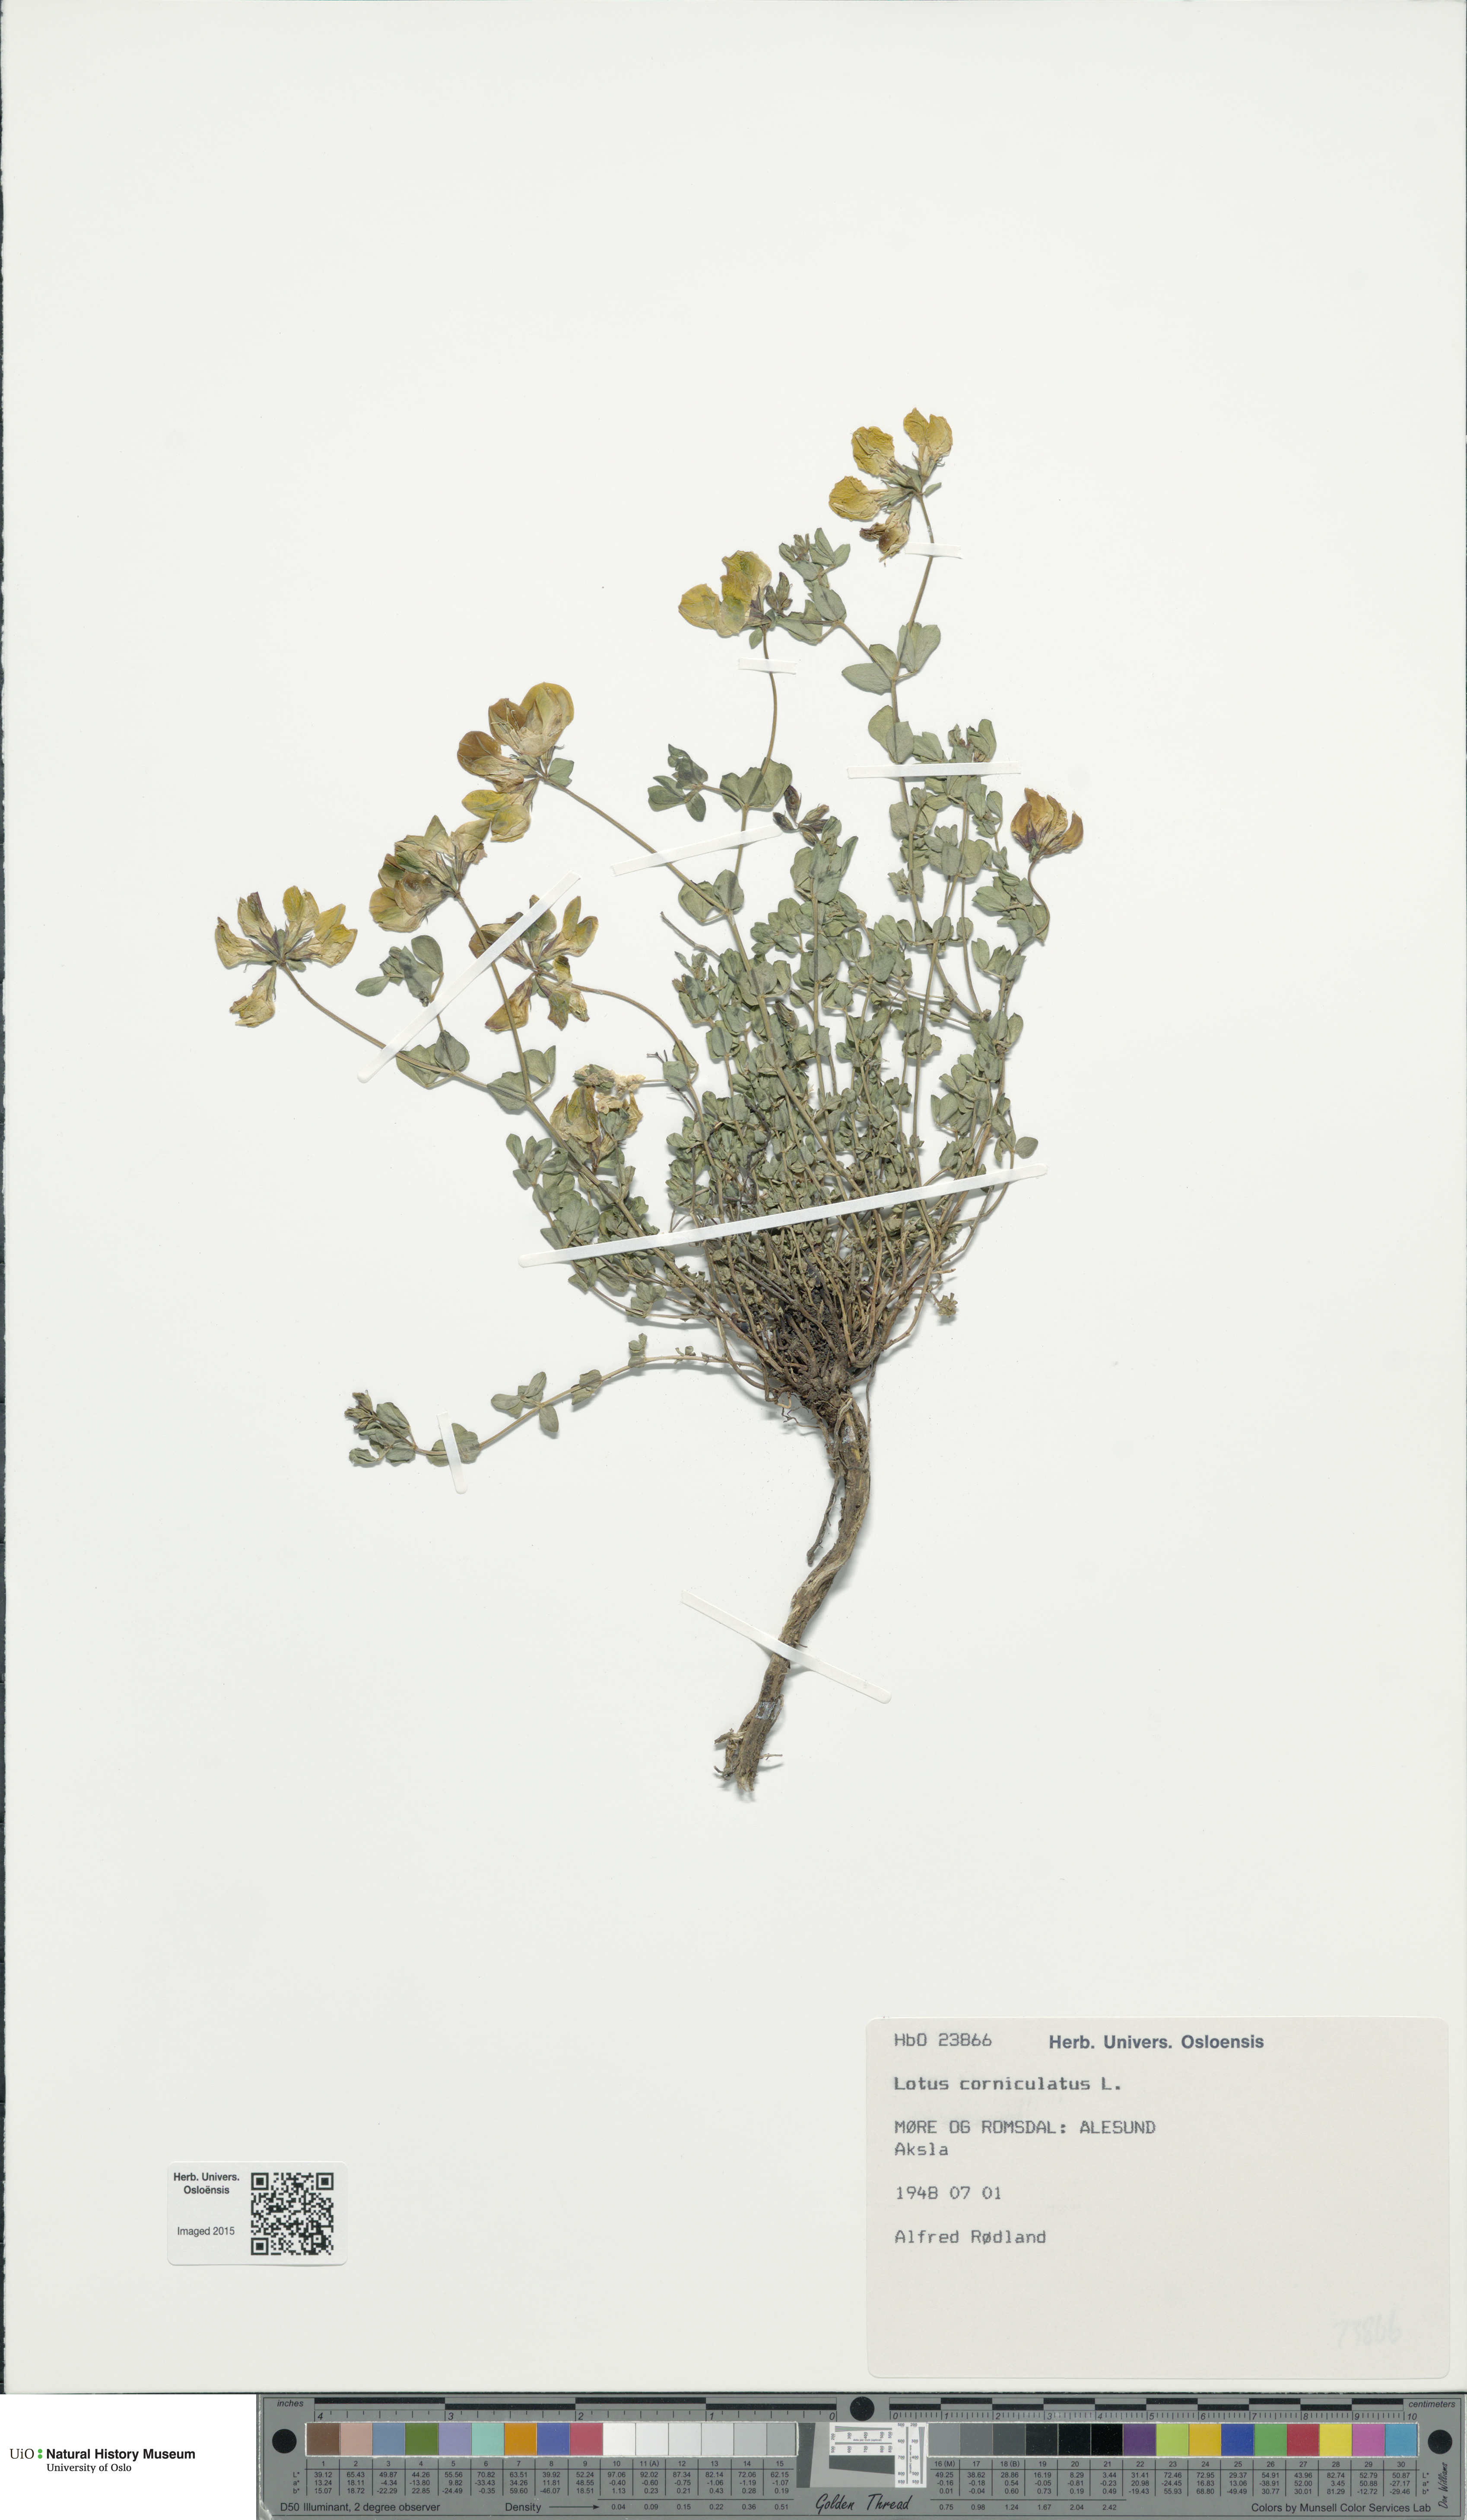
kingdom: Plantae
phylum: Tracheophyta
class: Magnoliopsida
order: Fabales
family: Fabaceae
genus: Lotus
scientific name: Lotus corniculatus
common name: Common bird's-foot-trefoil
